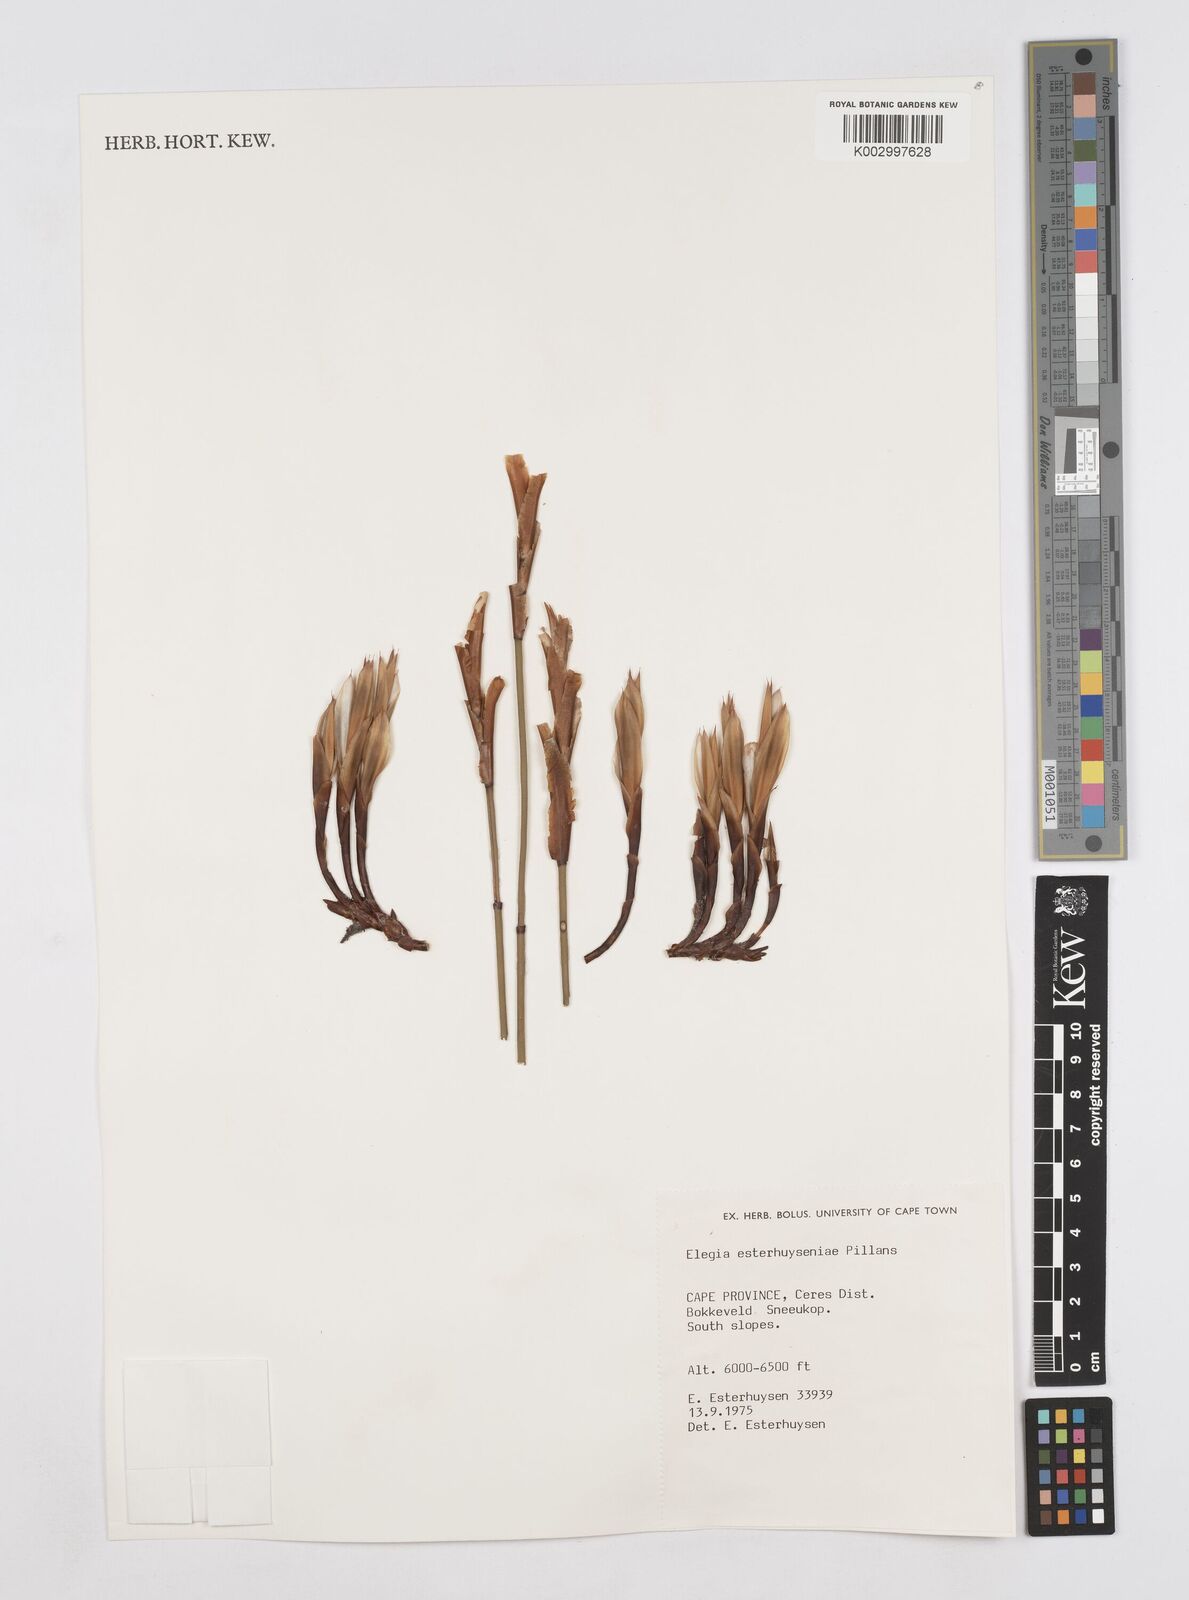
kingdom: Plantae
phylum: Tracheophyta
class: Liliopsida
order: Poales
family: Restionaceae
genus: Elegia
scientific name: Elegia esterhuyseniae
